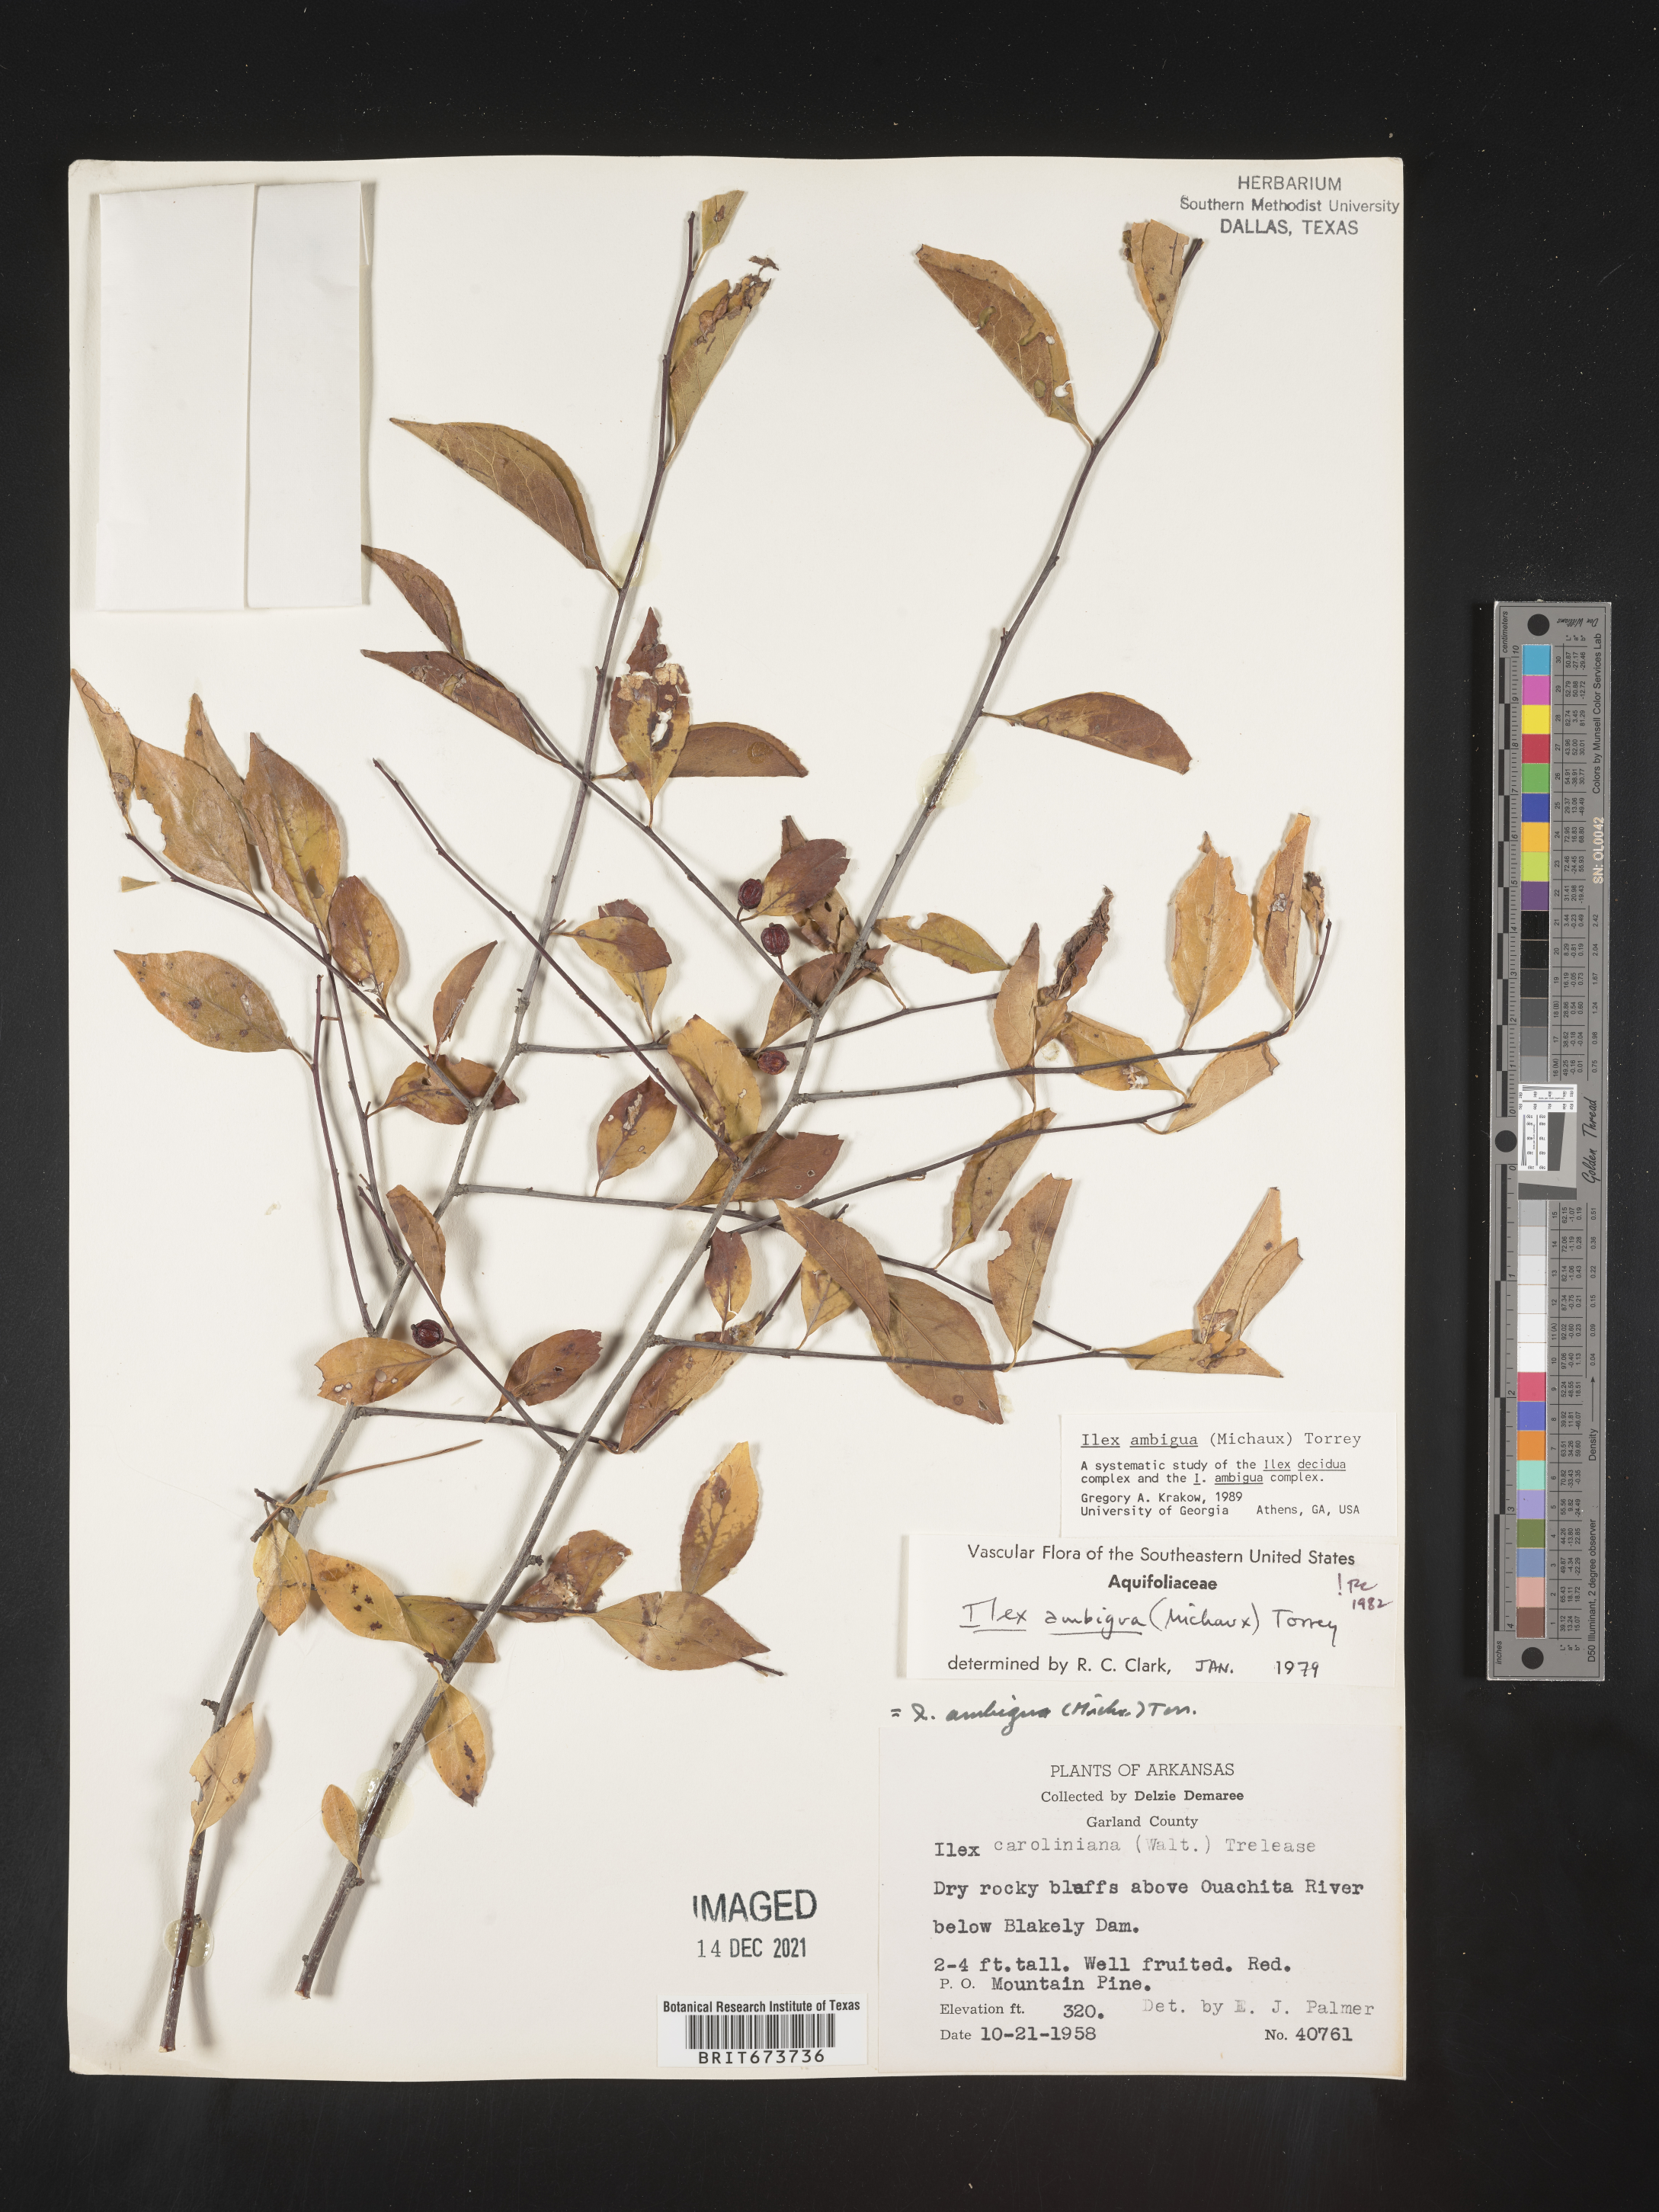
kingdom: Plantae
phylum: Tracheophyta
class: Magnoliopsida
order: Aquifoliales
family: Aquifoliaceae
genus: Ilex
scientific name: Ilex ambigua
